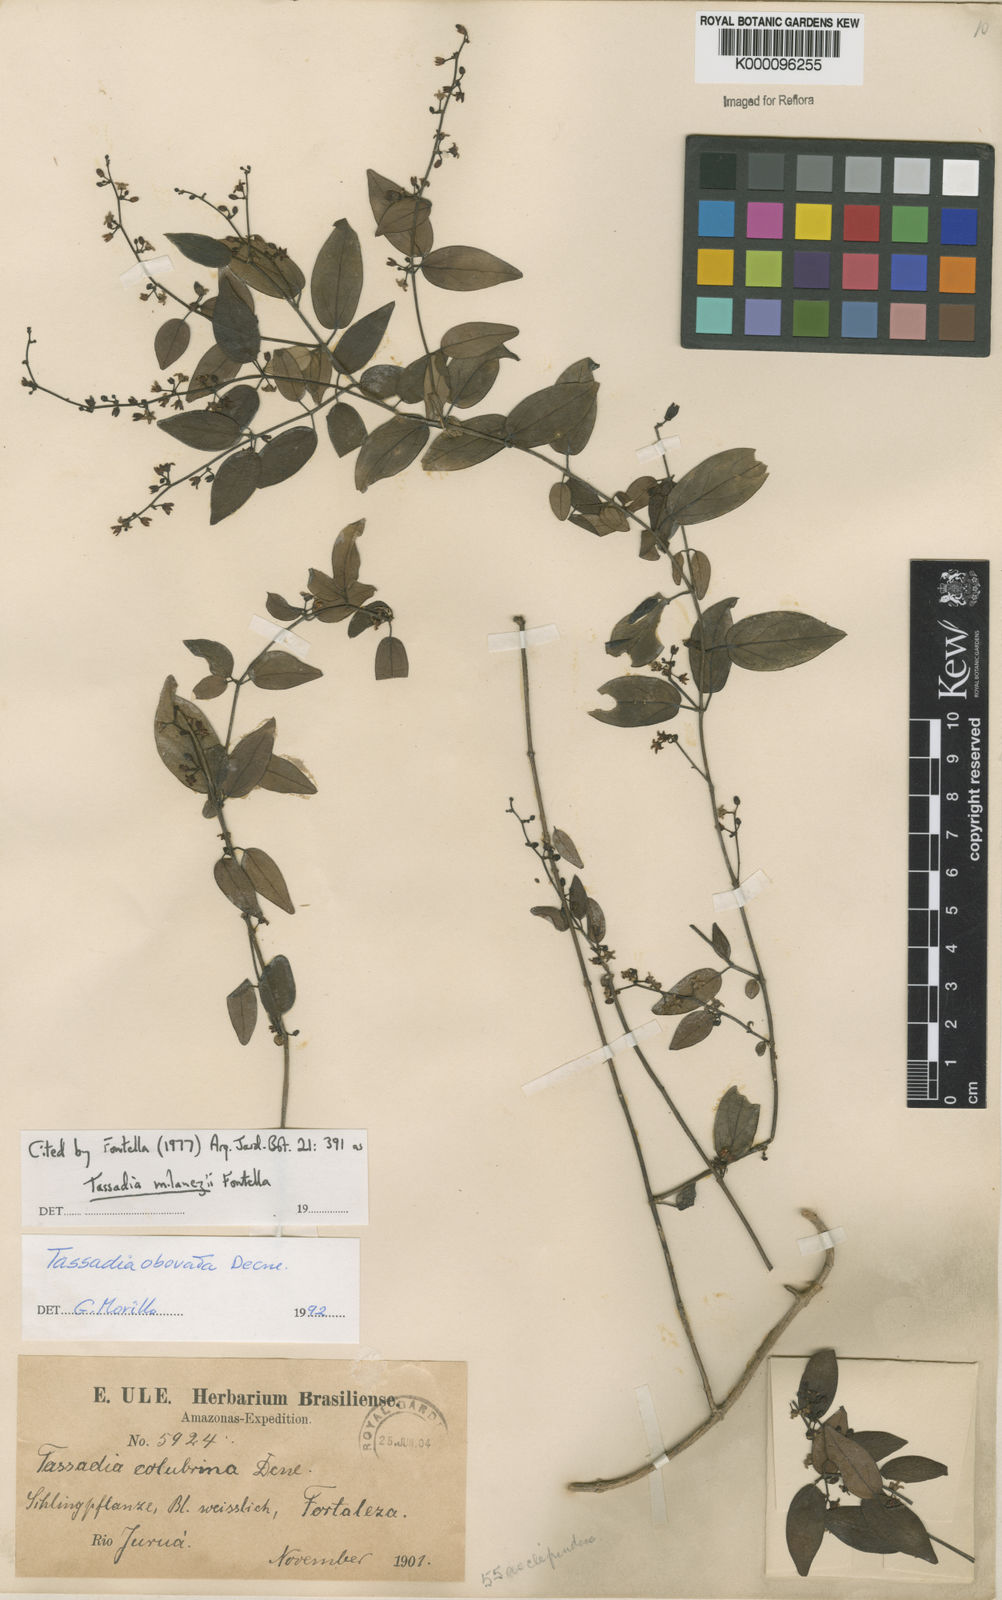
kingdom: Plantae
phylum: Tracheophyta
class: Magnoliopsida
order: Gentianales
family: Apocynaceae
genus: Tassadia
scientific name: Tassadia milanezii
